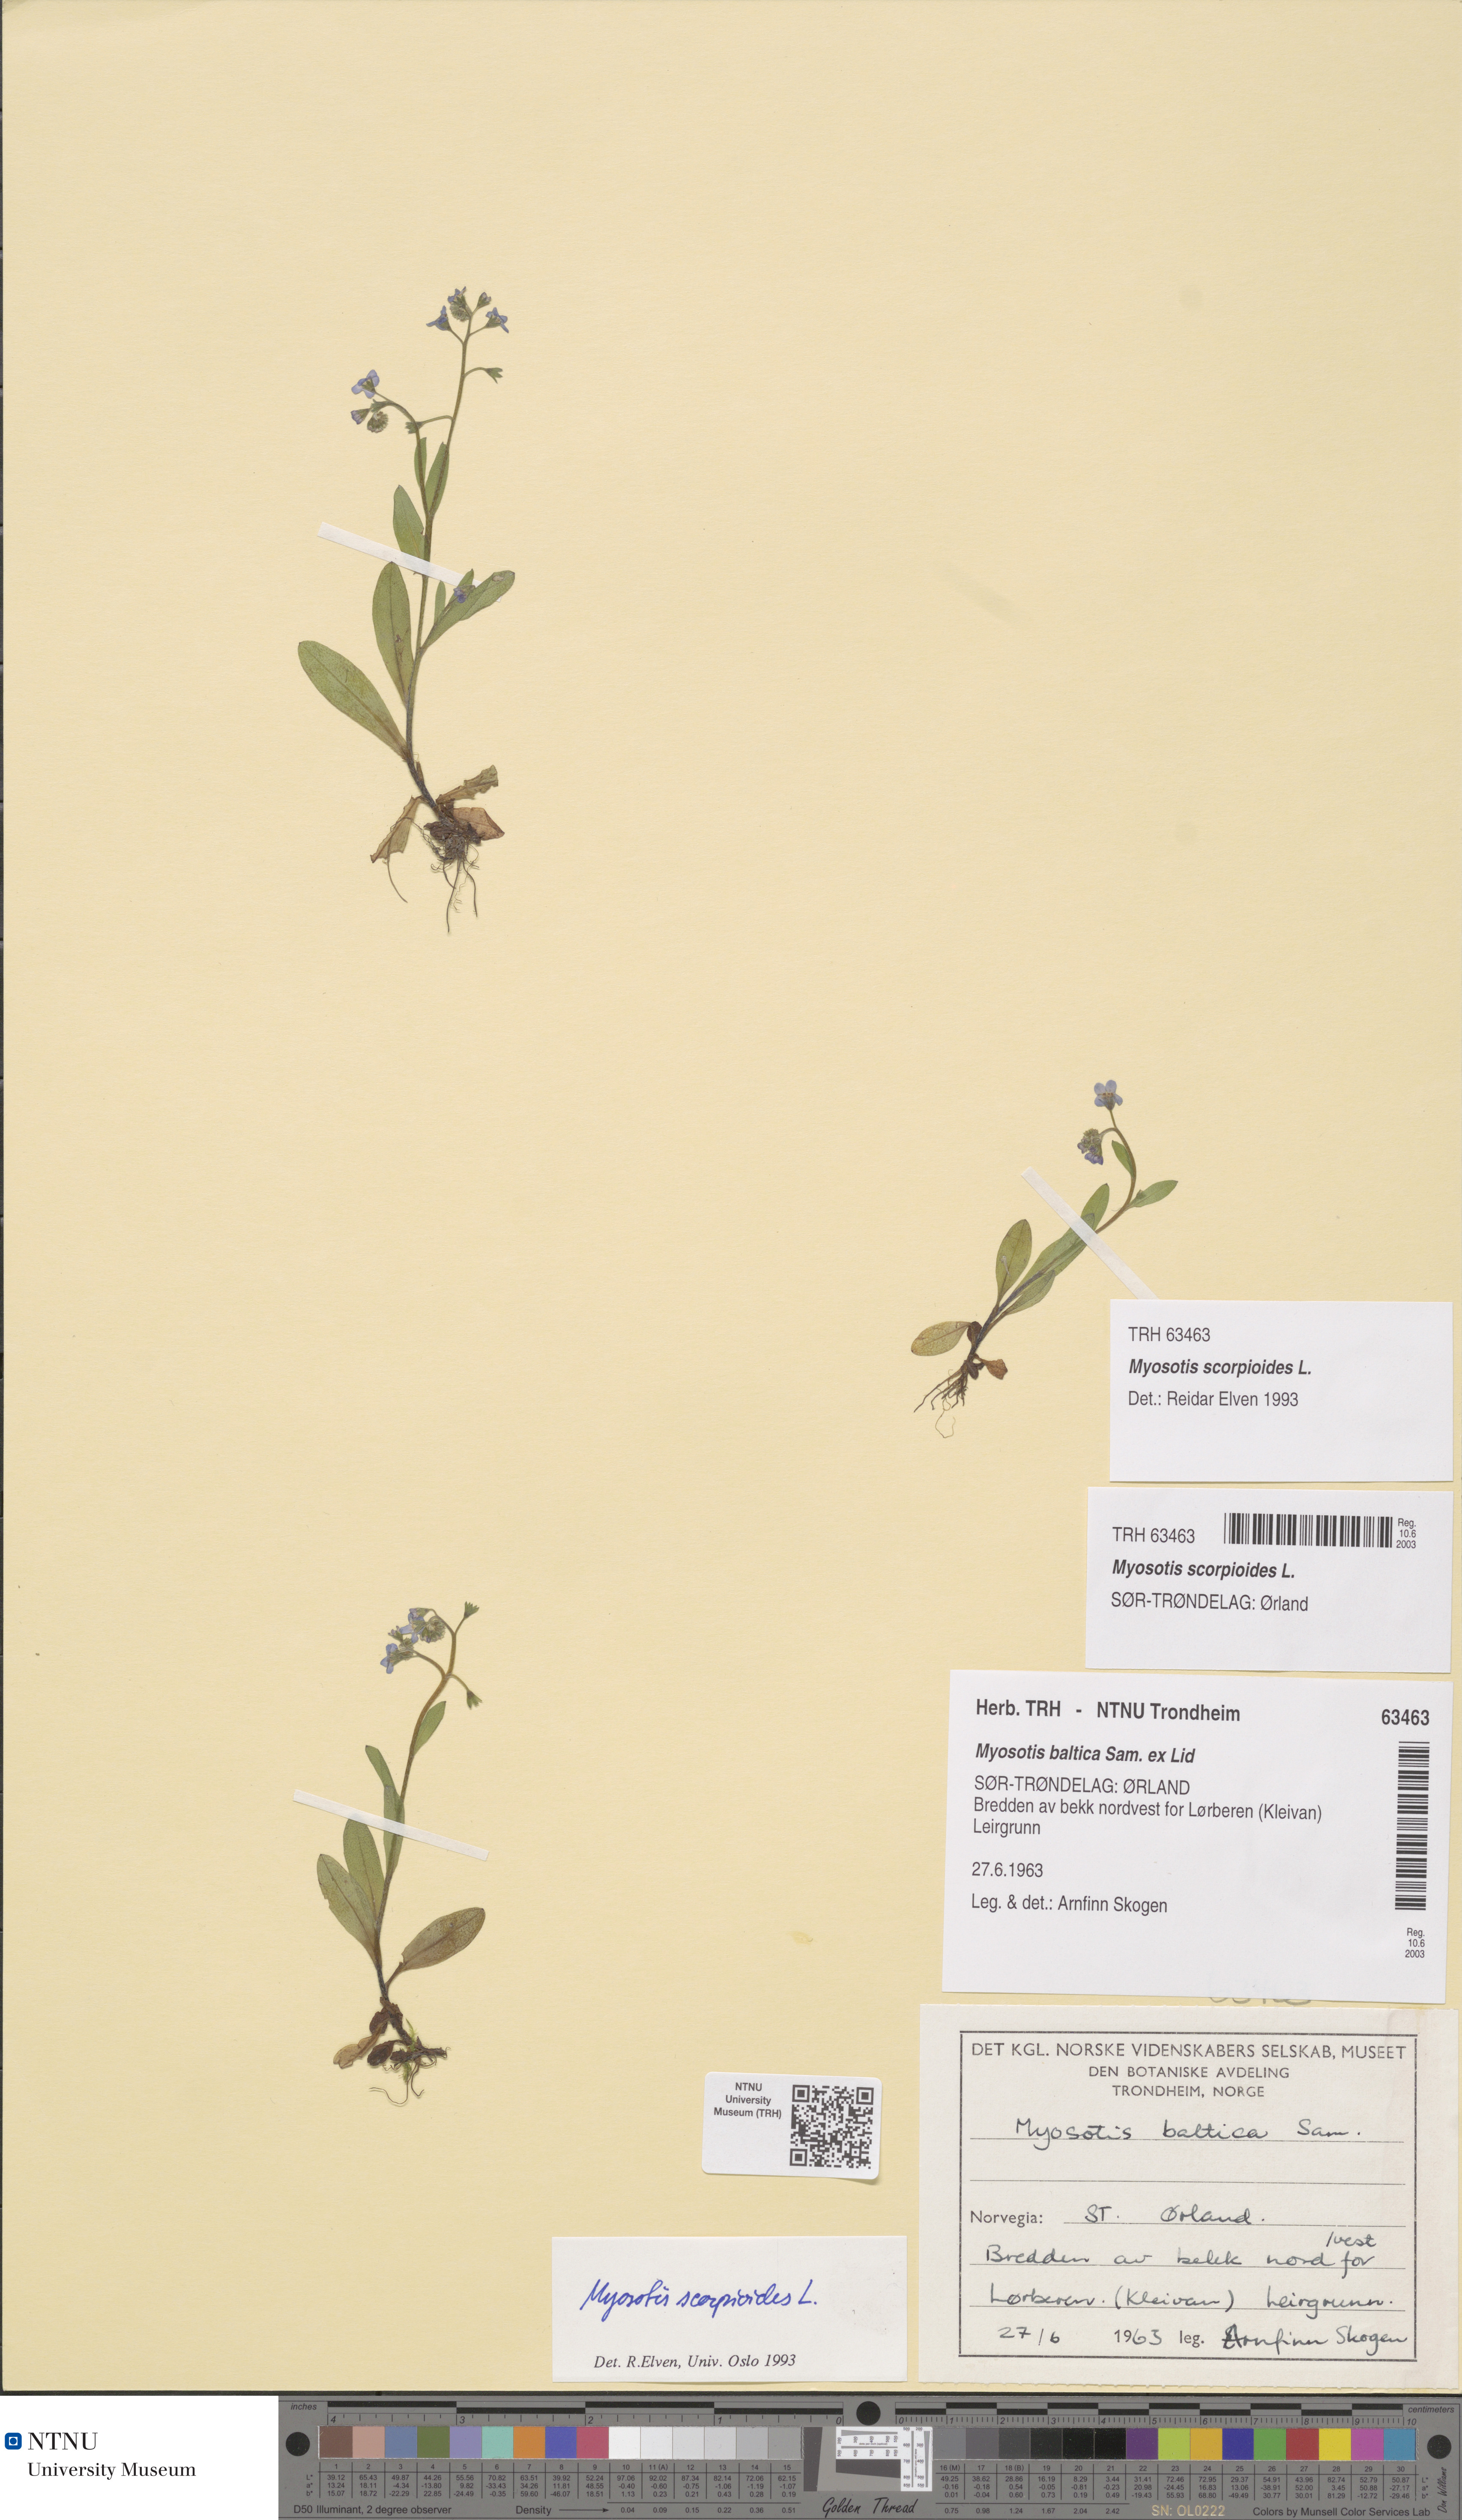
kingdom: Plantae
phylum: Tracheophyta
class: Magnoliopsida
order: Boraginales
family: Boraginaceae
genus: Myosotis
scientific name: Myosotis scorpioides
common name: Water forget-me-not
